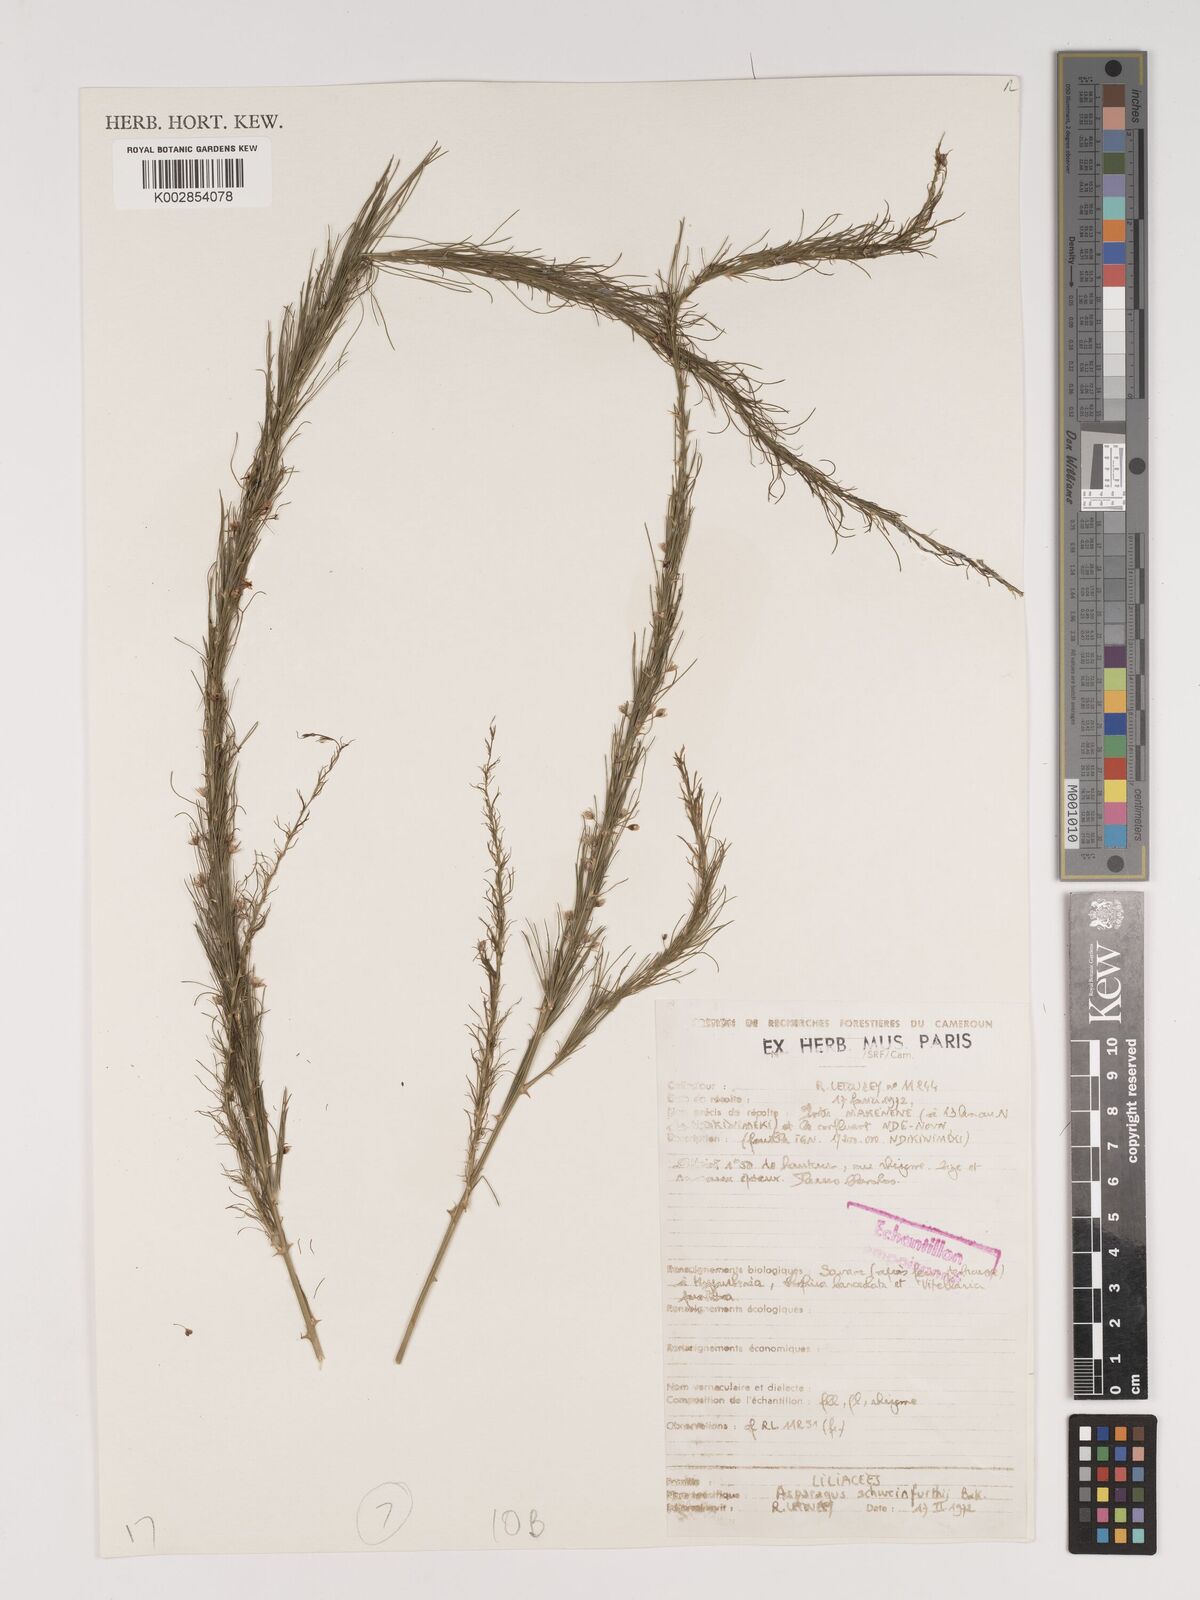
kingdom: Plantae
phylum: Tracheophyta
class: Liliopsida
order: Asparagales
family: Asparagaceae
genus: Asparagus
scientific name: Asparagus flagellaris
